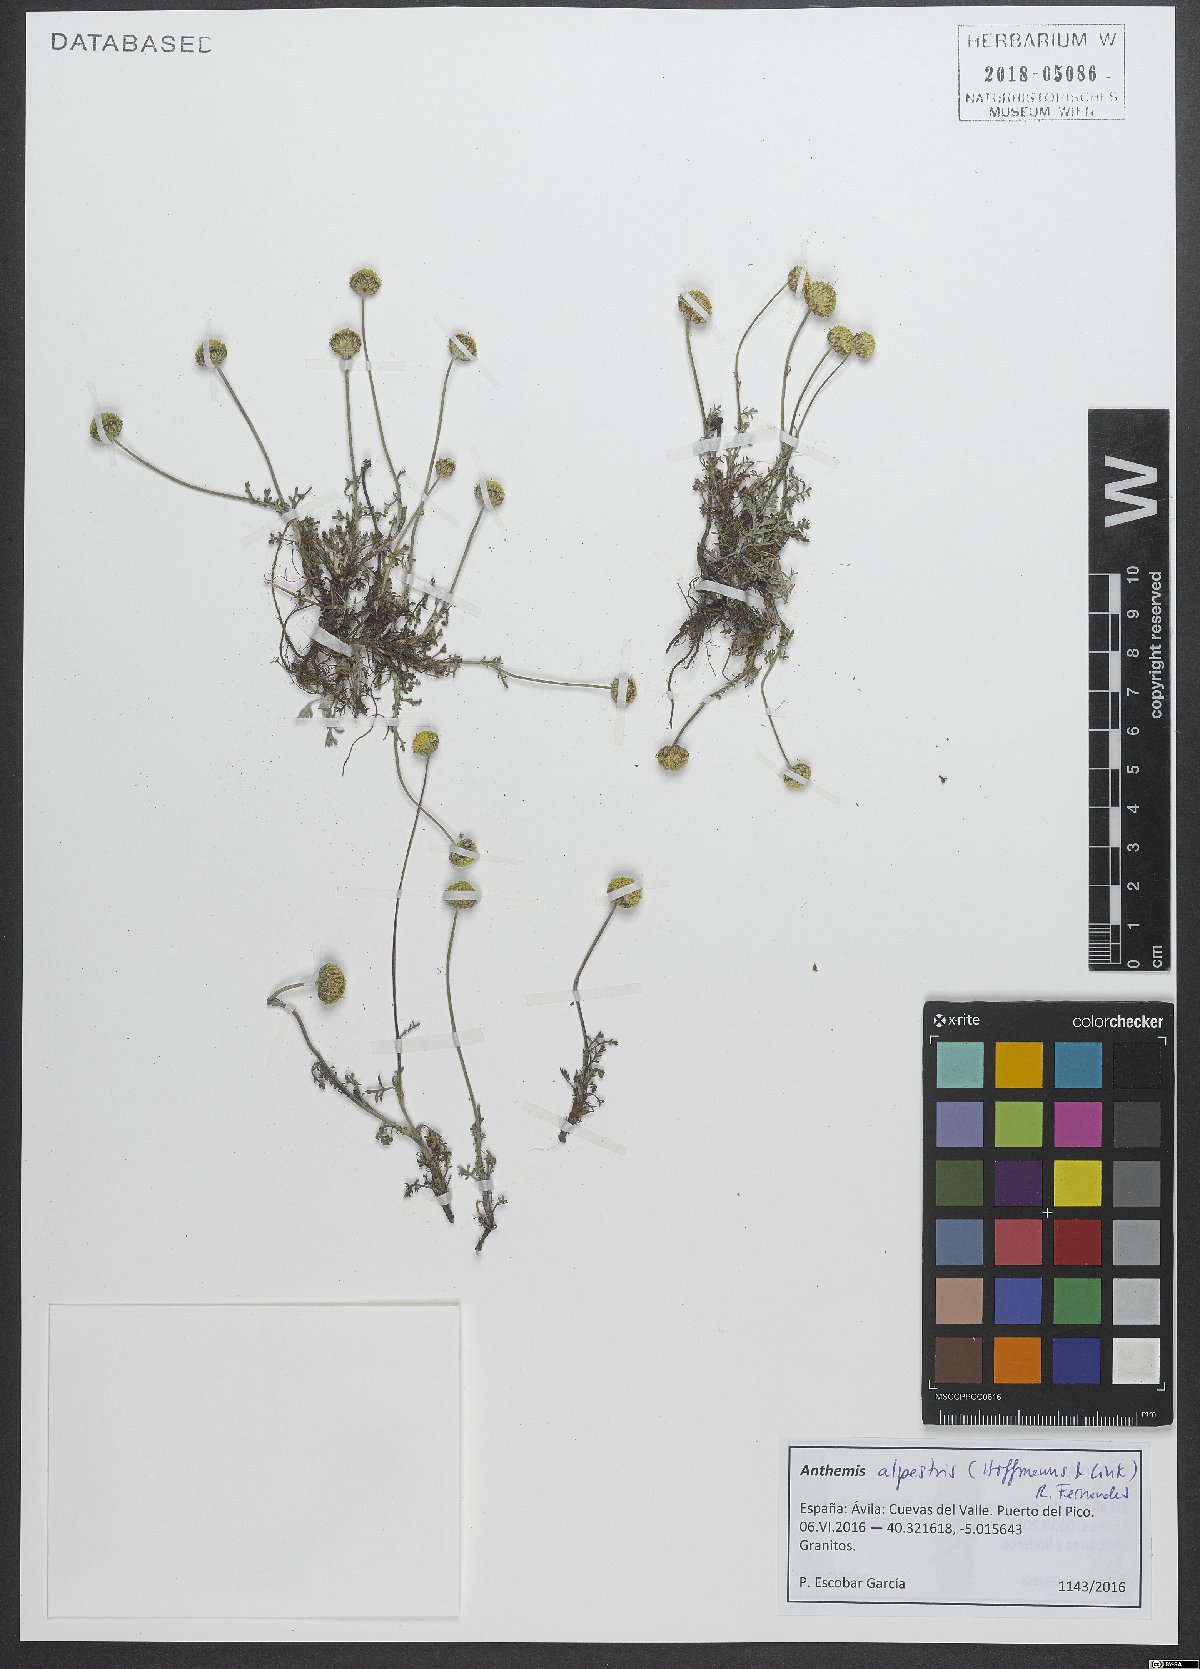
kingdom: Plantae
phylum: Tracheophyta
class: Magnoliopsida
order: Asterales
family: Asteraceae
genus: Anthemis
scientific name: Anthemis alpestris
